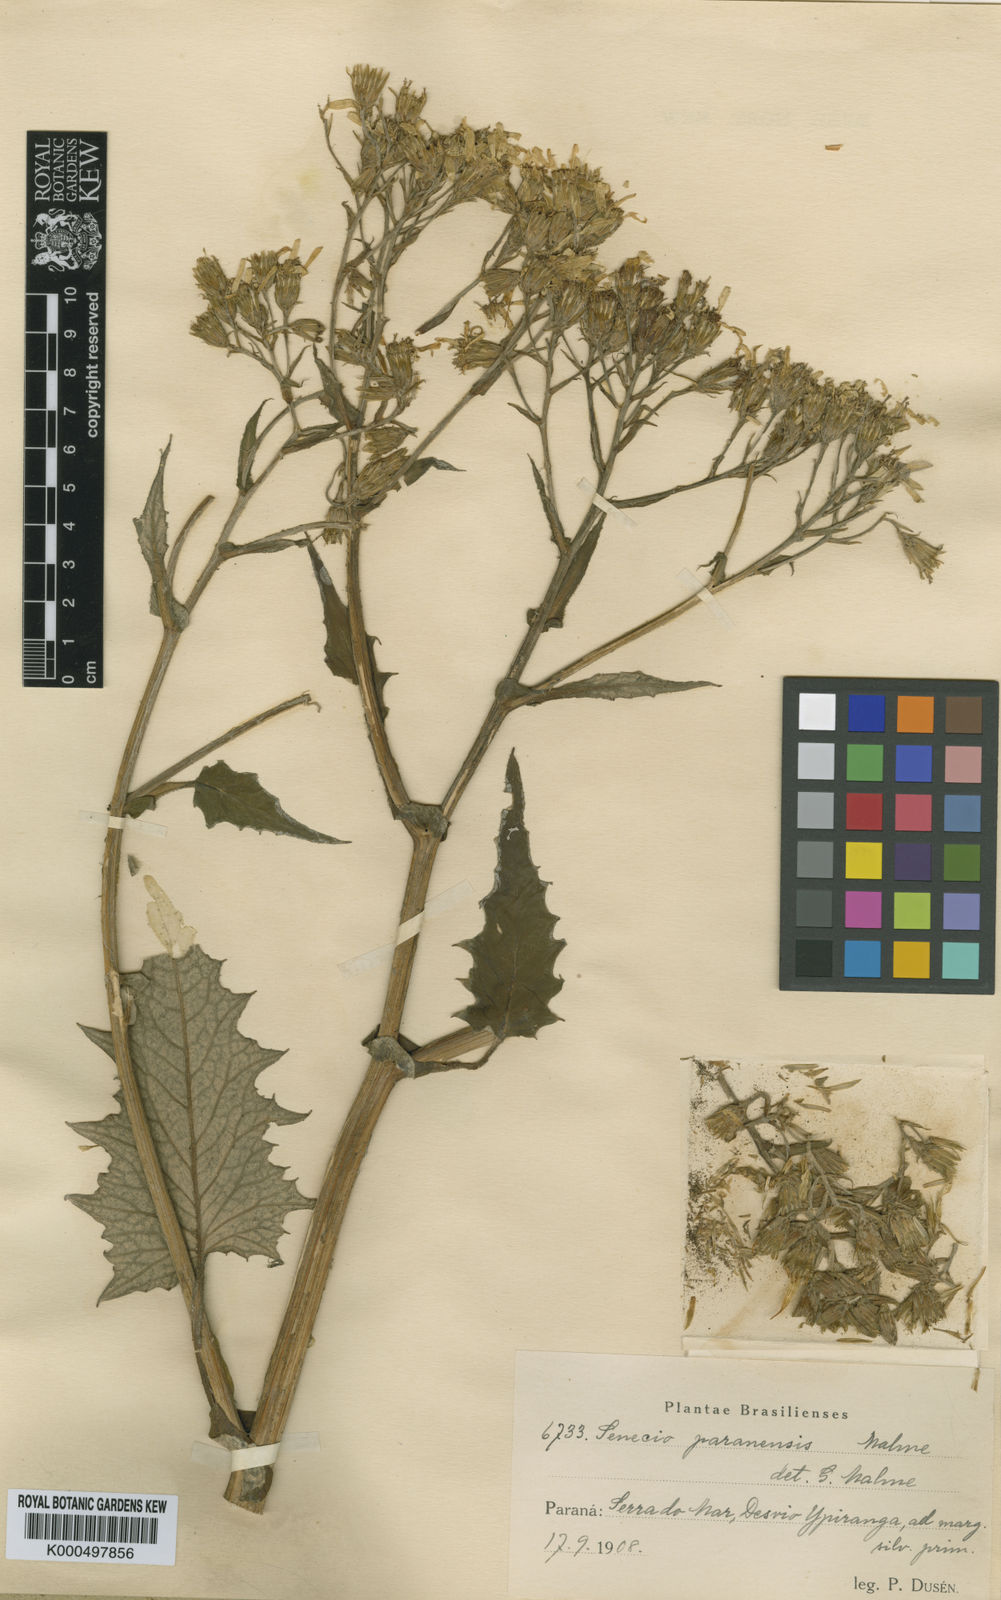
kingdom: Plantae
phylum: Tracheophyta
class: Magnoliopsida
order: Asterales
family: Asteraceae
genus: Dendrophorbium
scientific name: Dendrophorbium paranense
